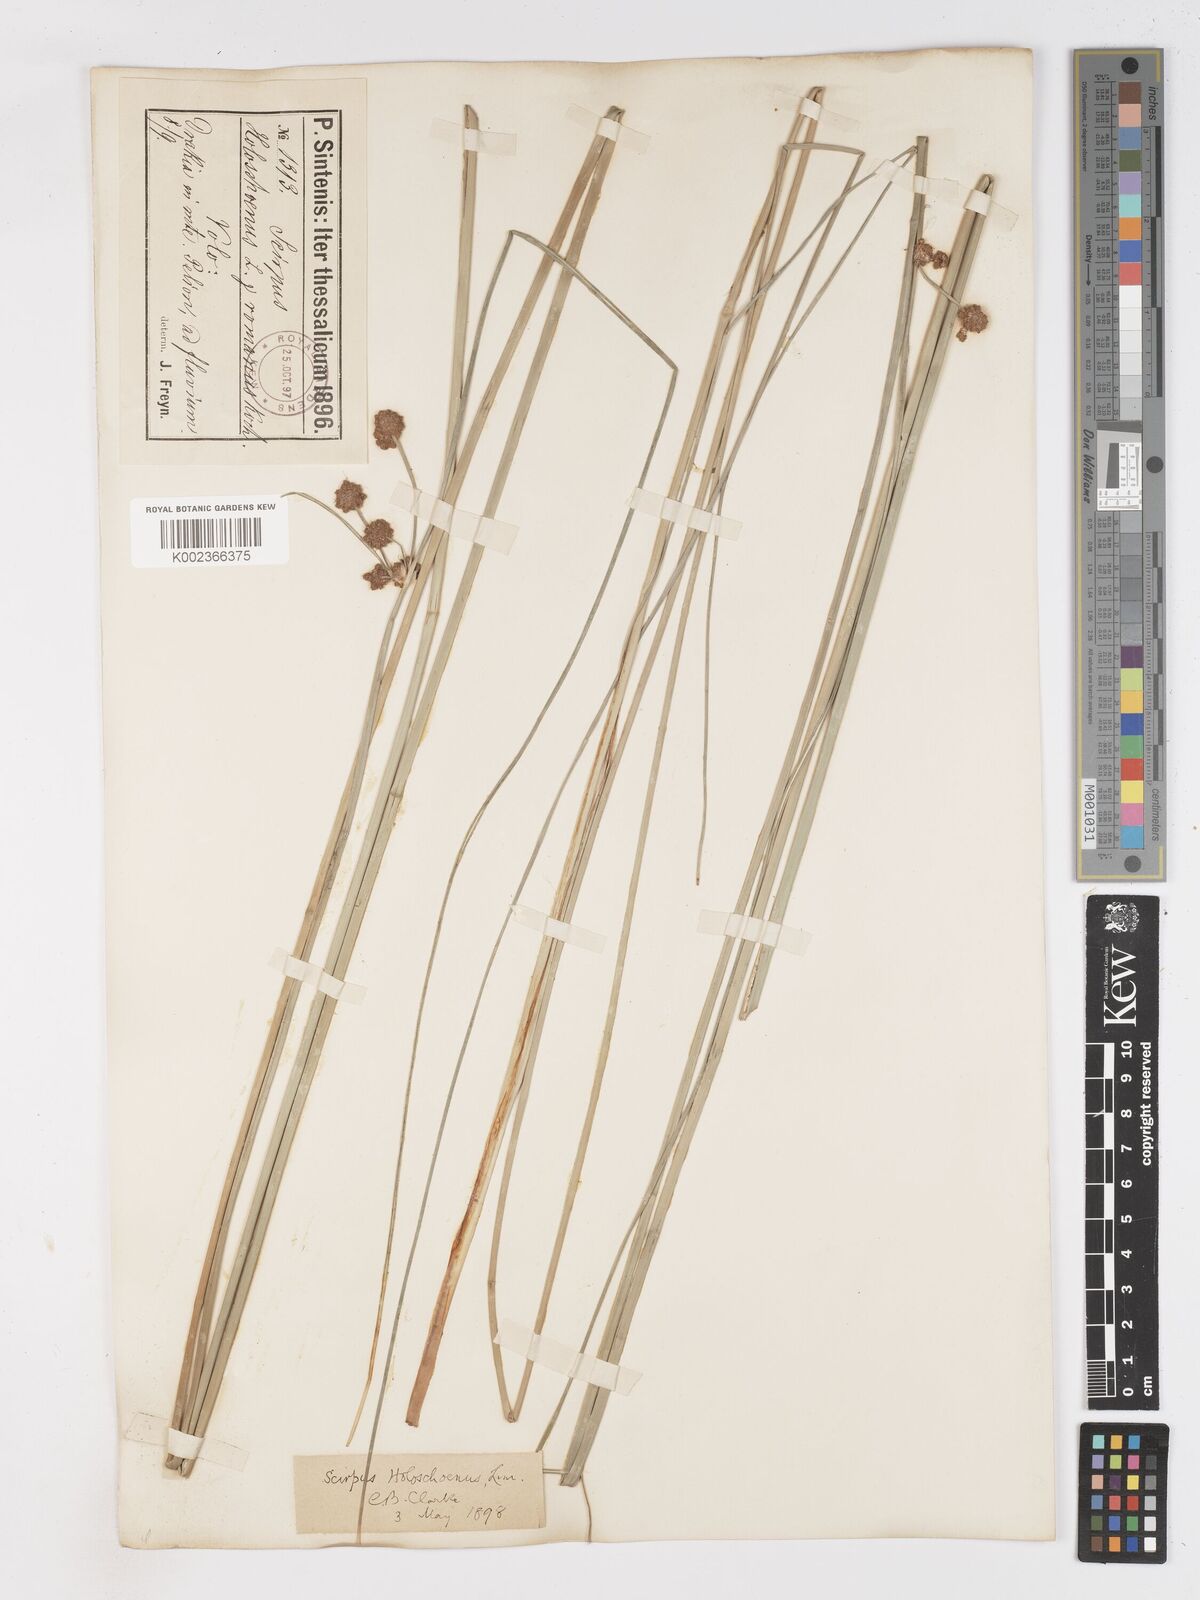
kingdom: Plantae
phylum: Tracheophyta
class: Liliopsida
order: Poales
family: Cyperaceae
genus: Scirpoides
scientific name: Scirpoides holoschoenus
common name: Round-headed club-rush
